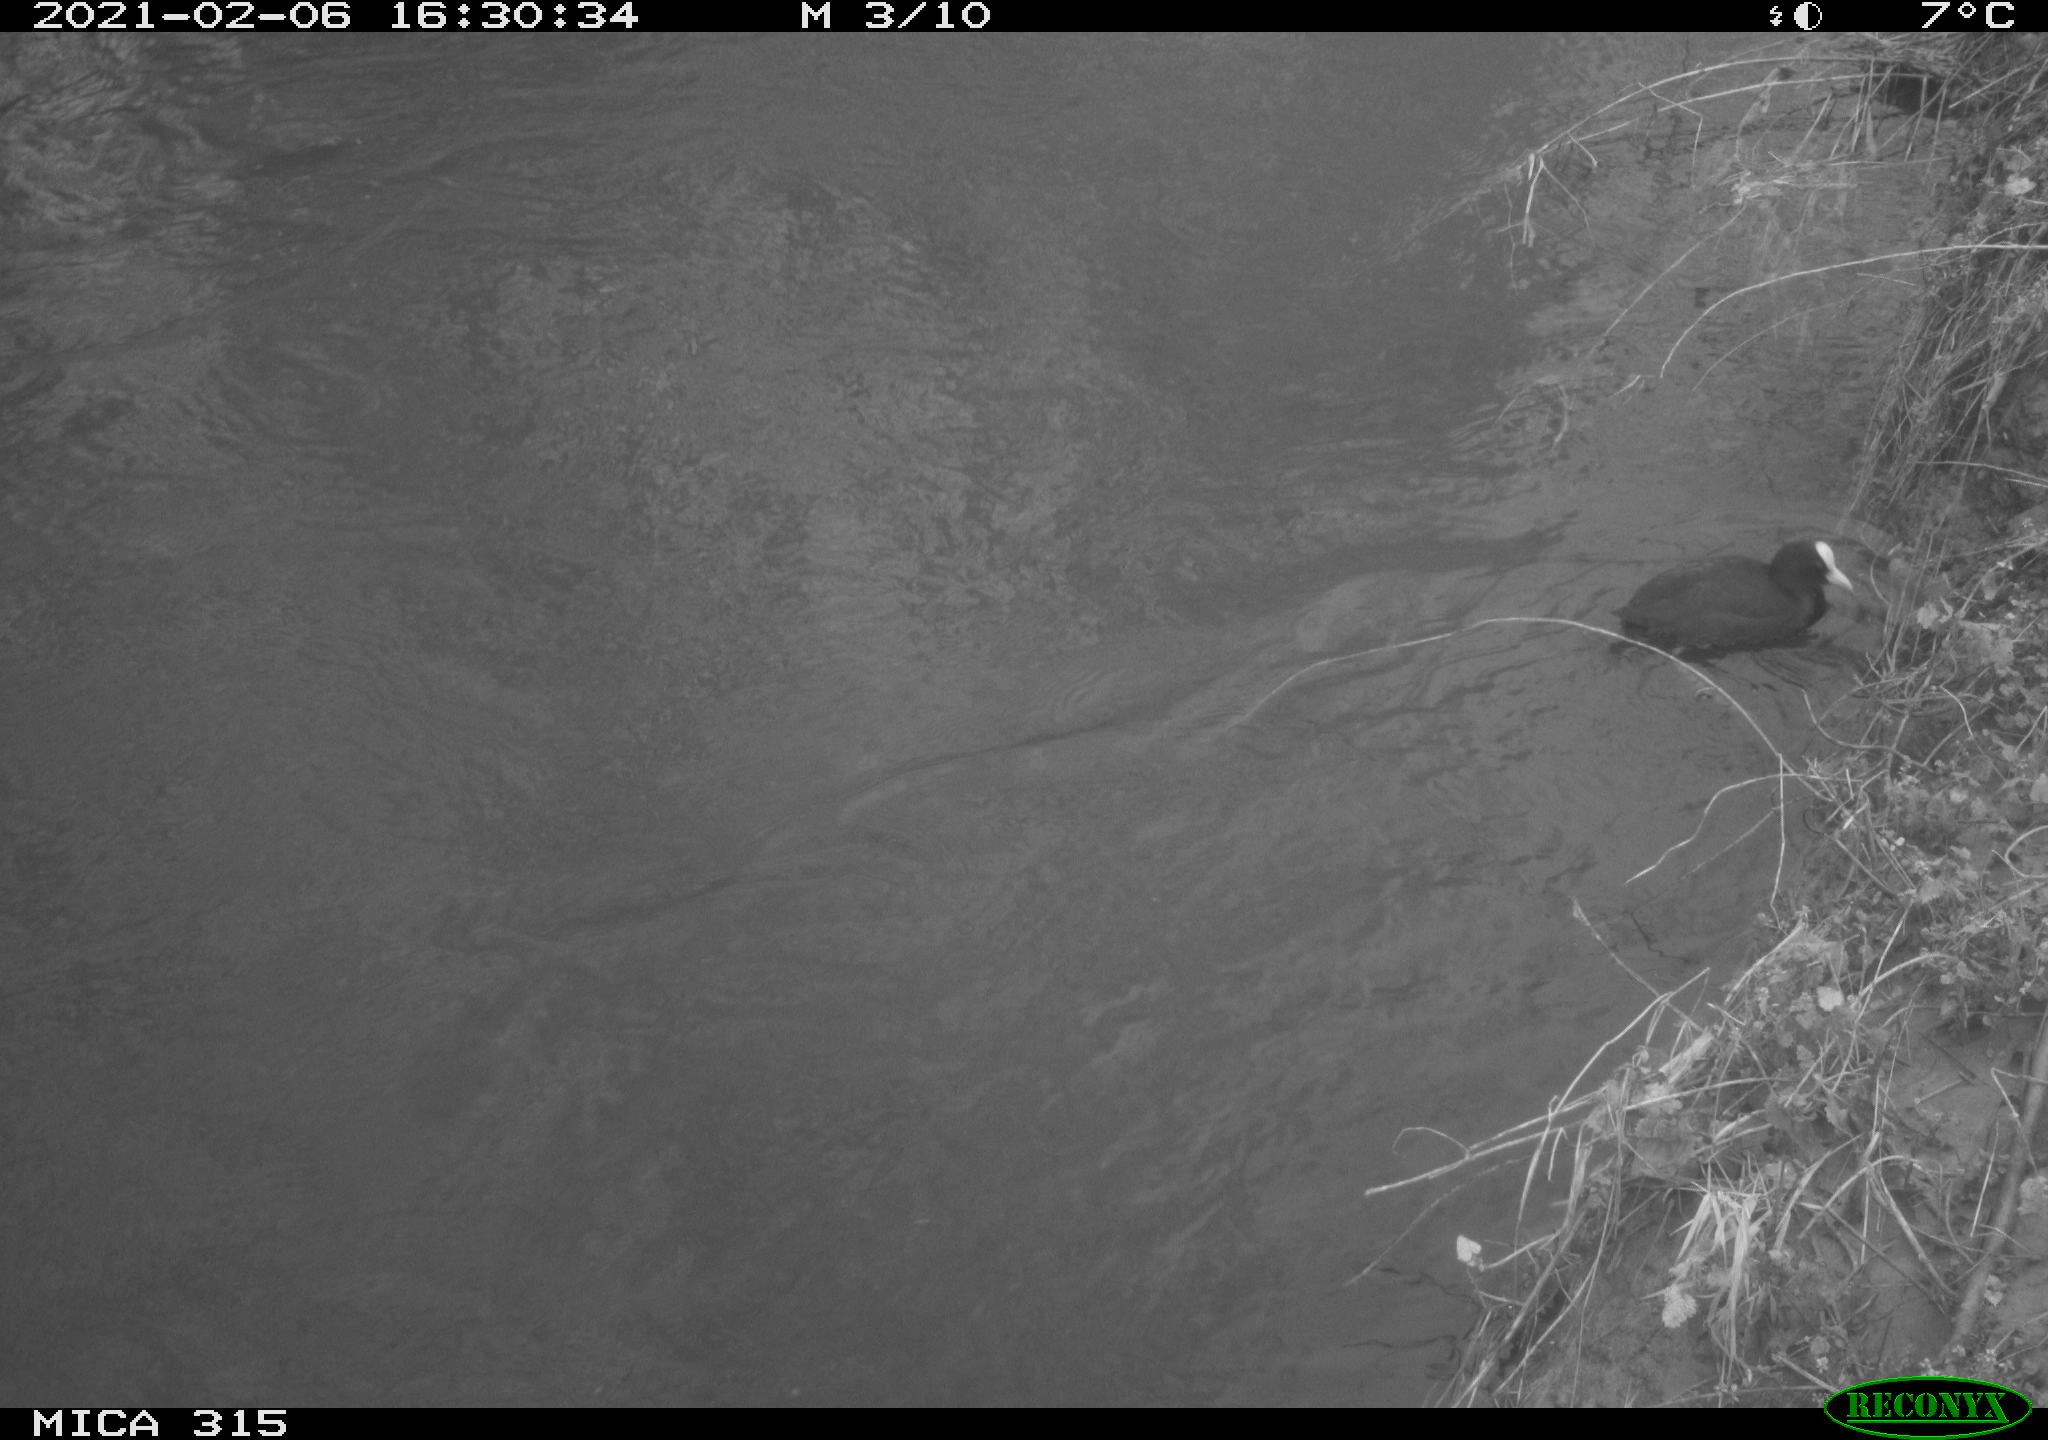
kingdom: Animalia
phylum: Chordata
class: Aves
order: Gruiformes
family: Rallidae
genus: Fulica
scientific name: Fulica atra
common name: Eurasian coot
